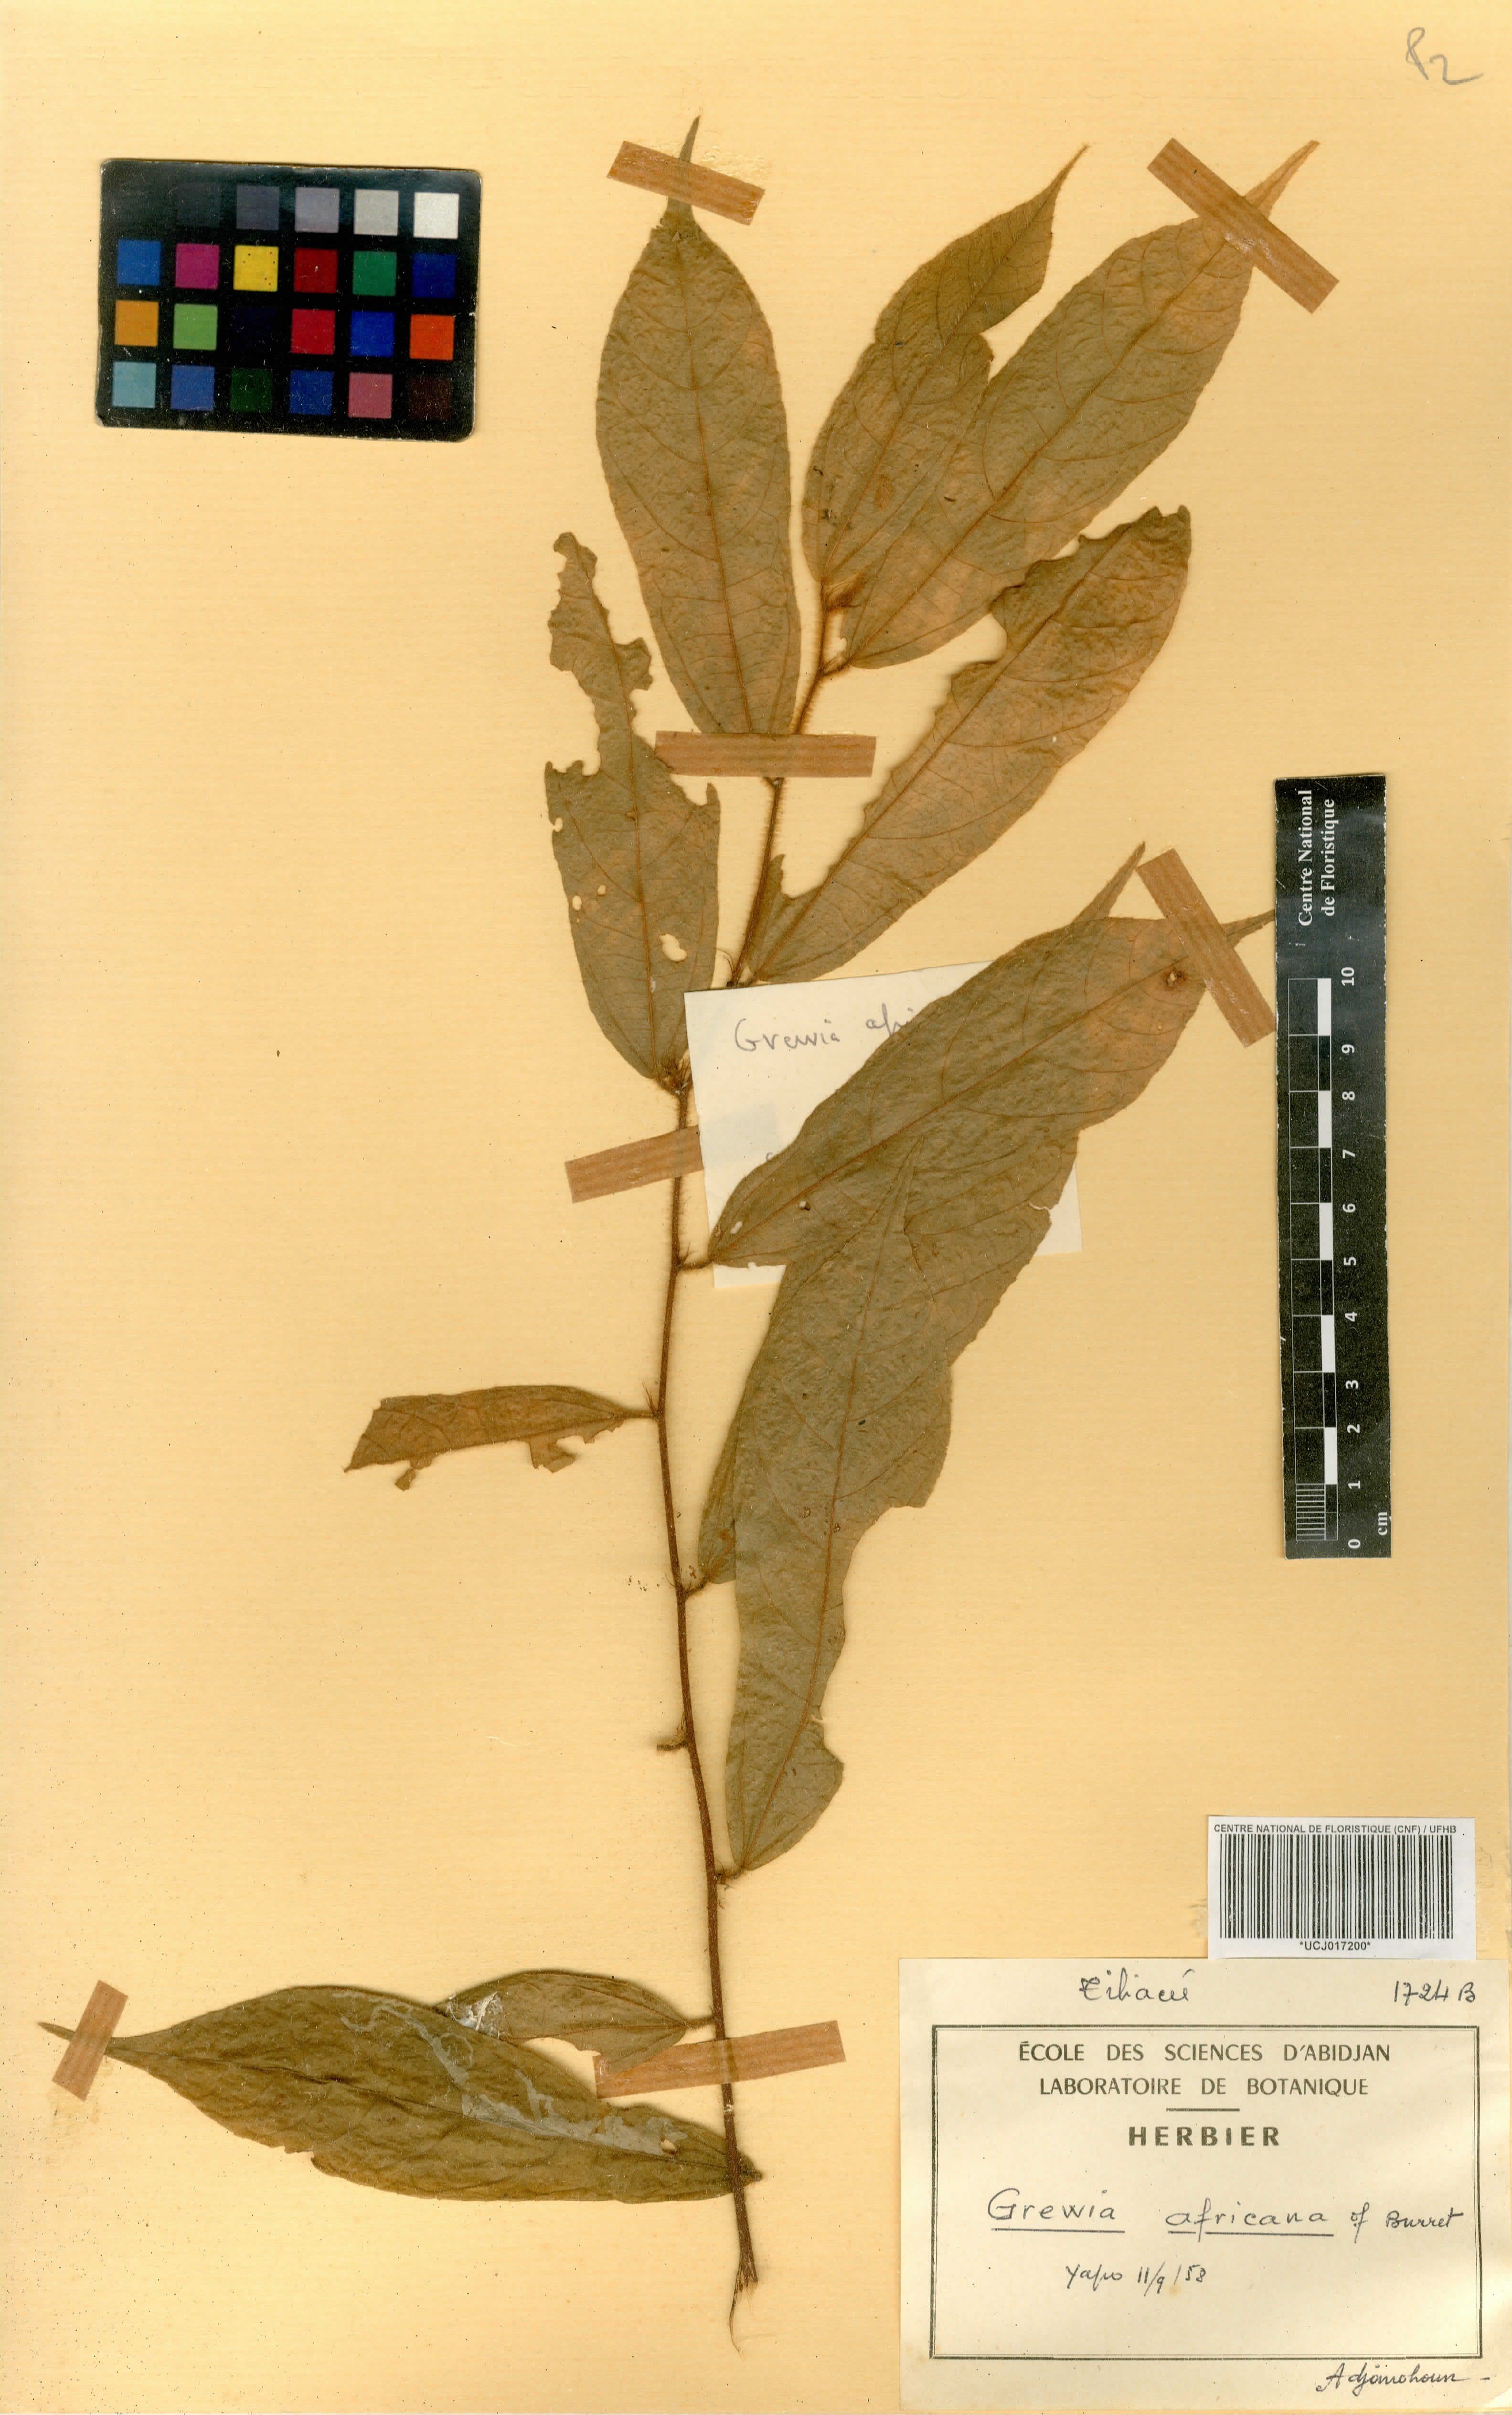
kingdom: Plantae
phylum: Tracheophyta
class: Magnoliopsida
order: Malvales
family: Malvaceae
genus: Grewia
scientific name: Grewia
